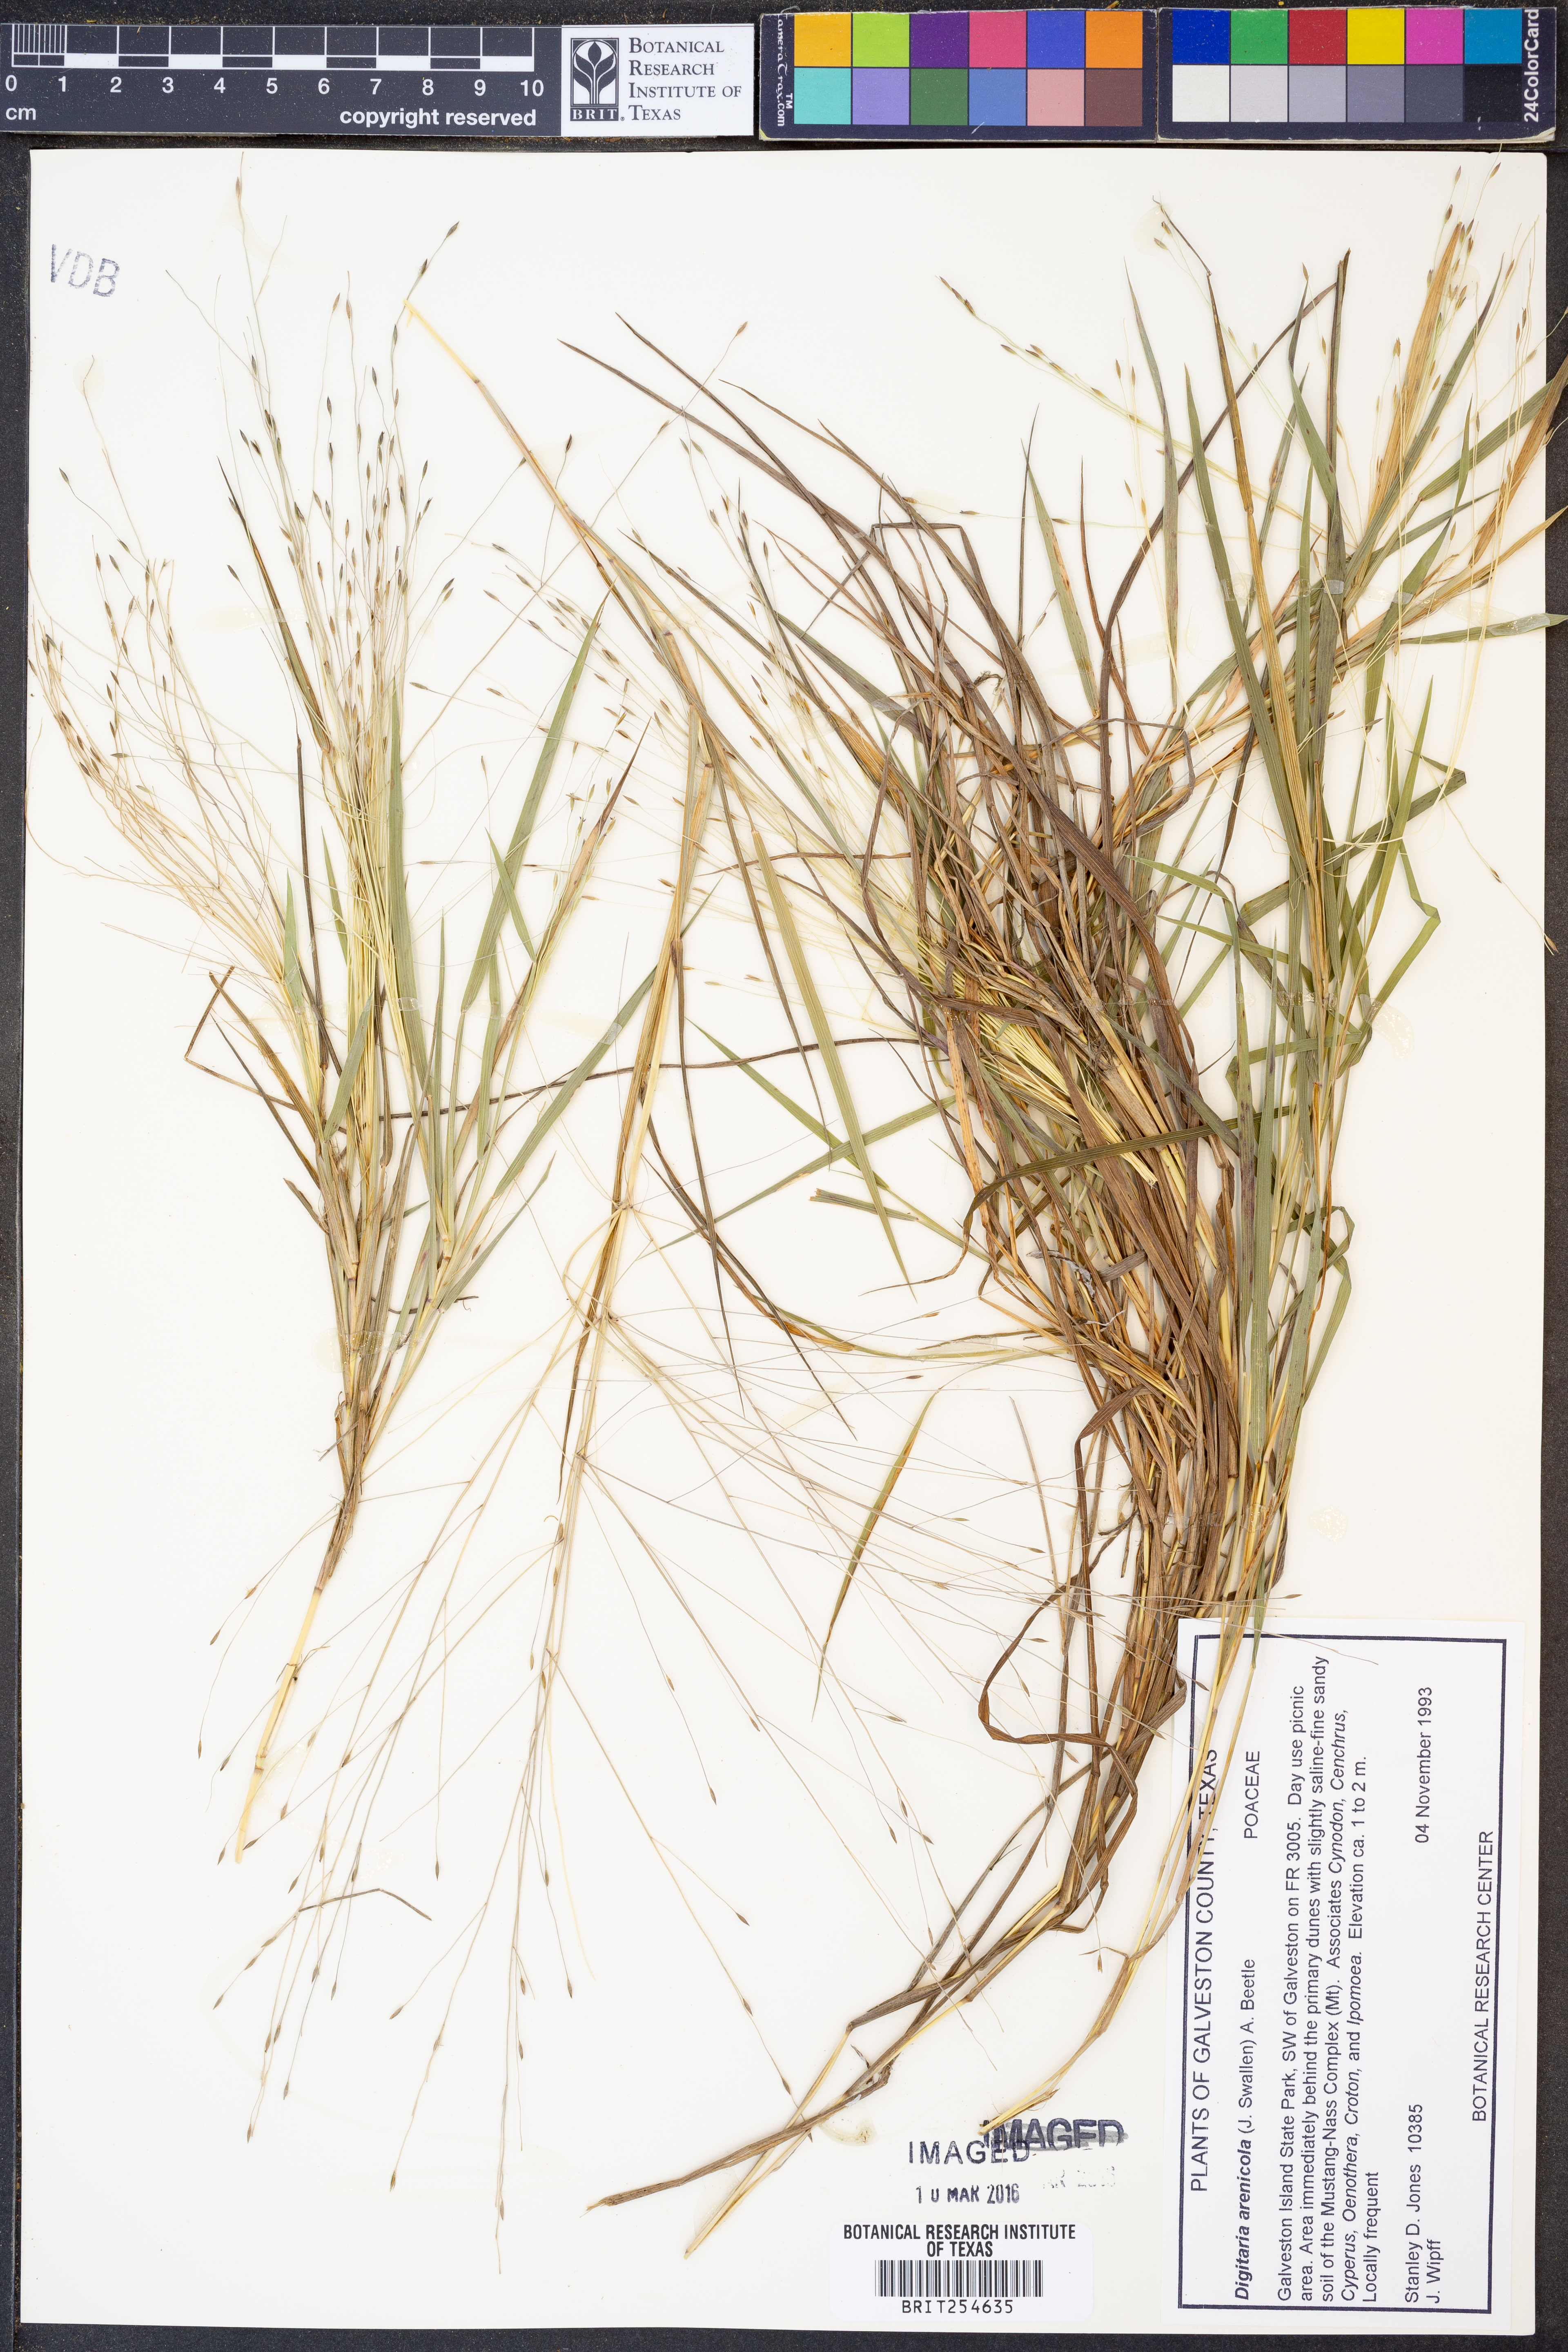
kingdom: Plantae
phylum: Tracheophyta
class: Liliopsida
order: Poales
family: Poaceae
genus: Digitaria
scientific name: Digitaria arenicola
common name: Sand witchgrass
